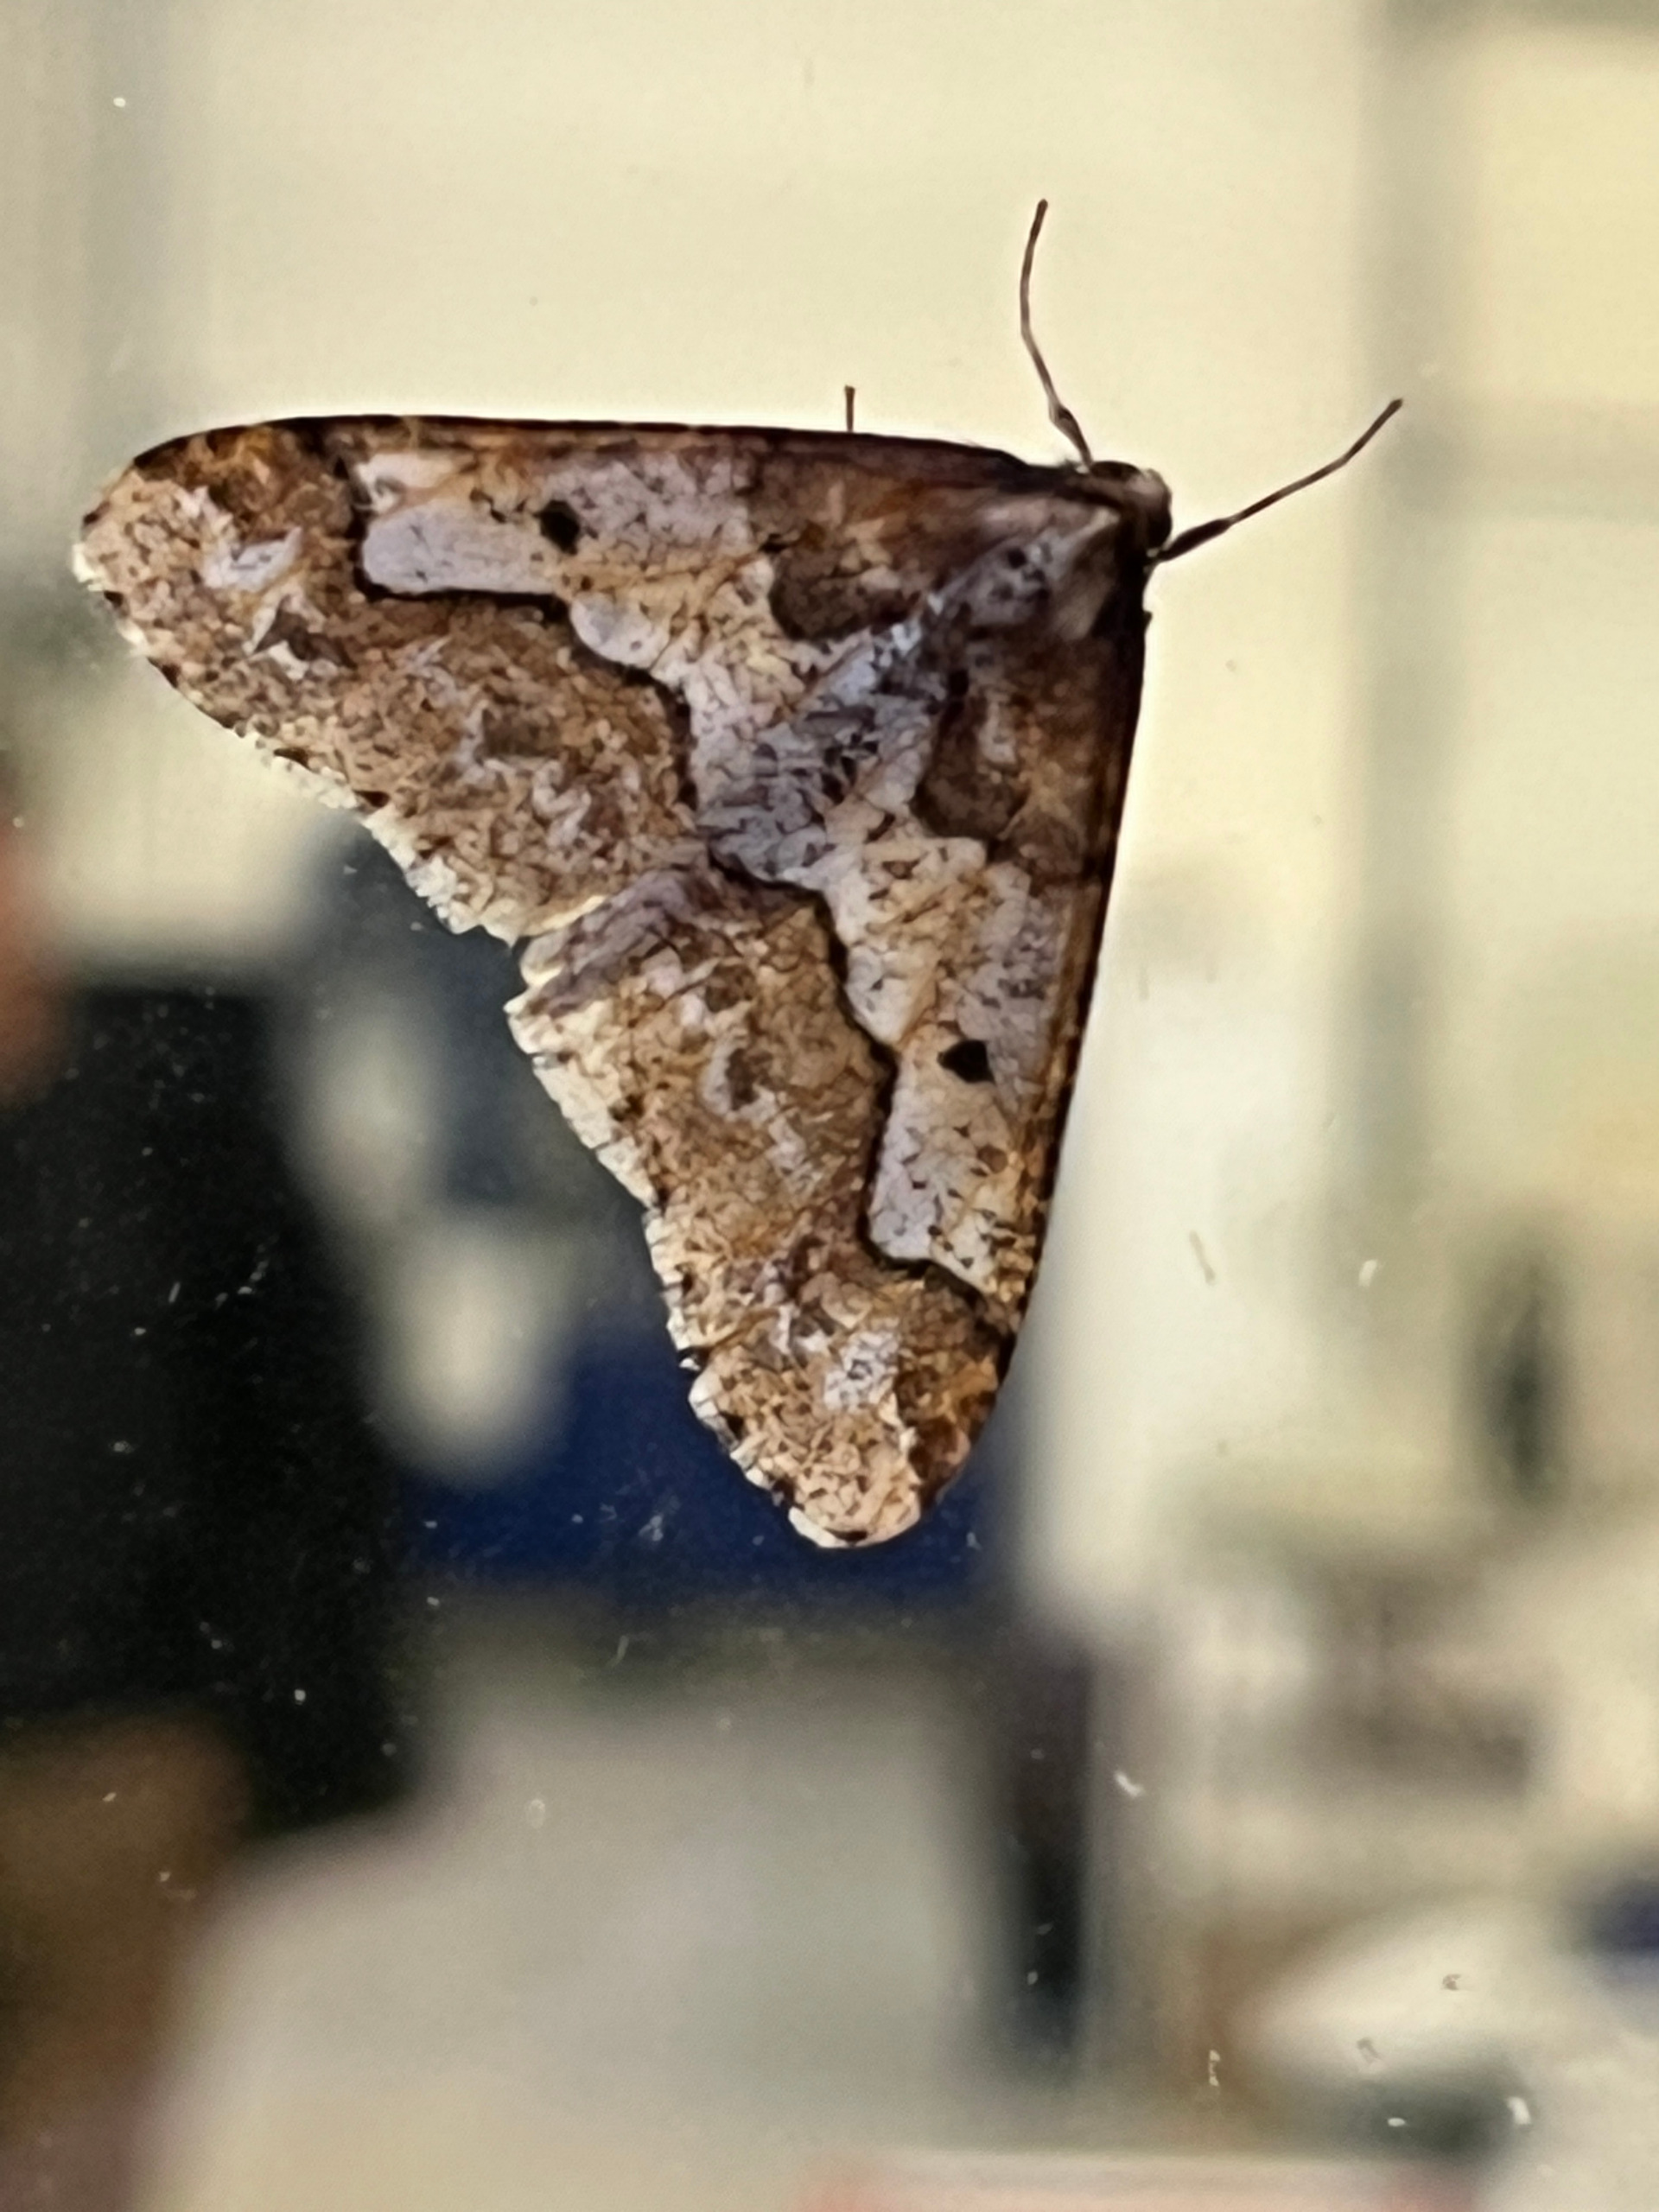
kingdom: Animalia
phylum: Arthropoda
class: Insecta
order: Lepidoptera
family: Geometridae
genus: Erannis
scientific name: Erannis defoliaria
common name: Stor frostmåler
